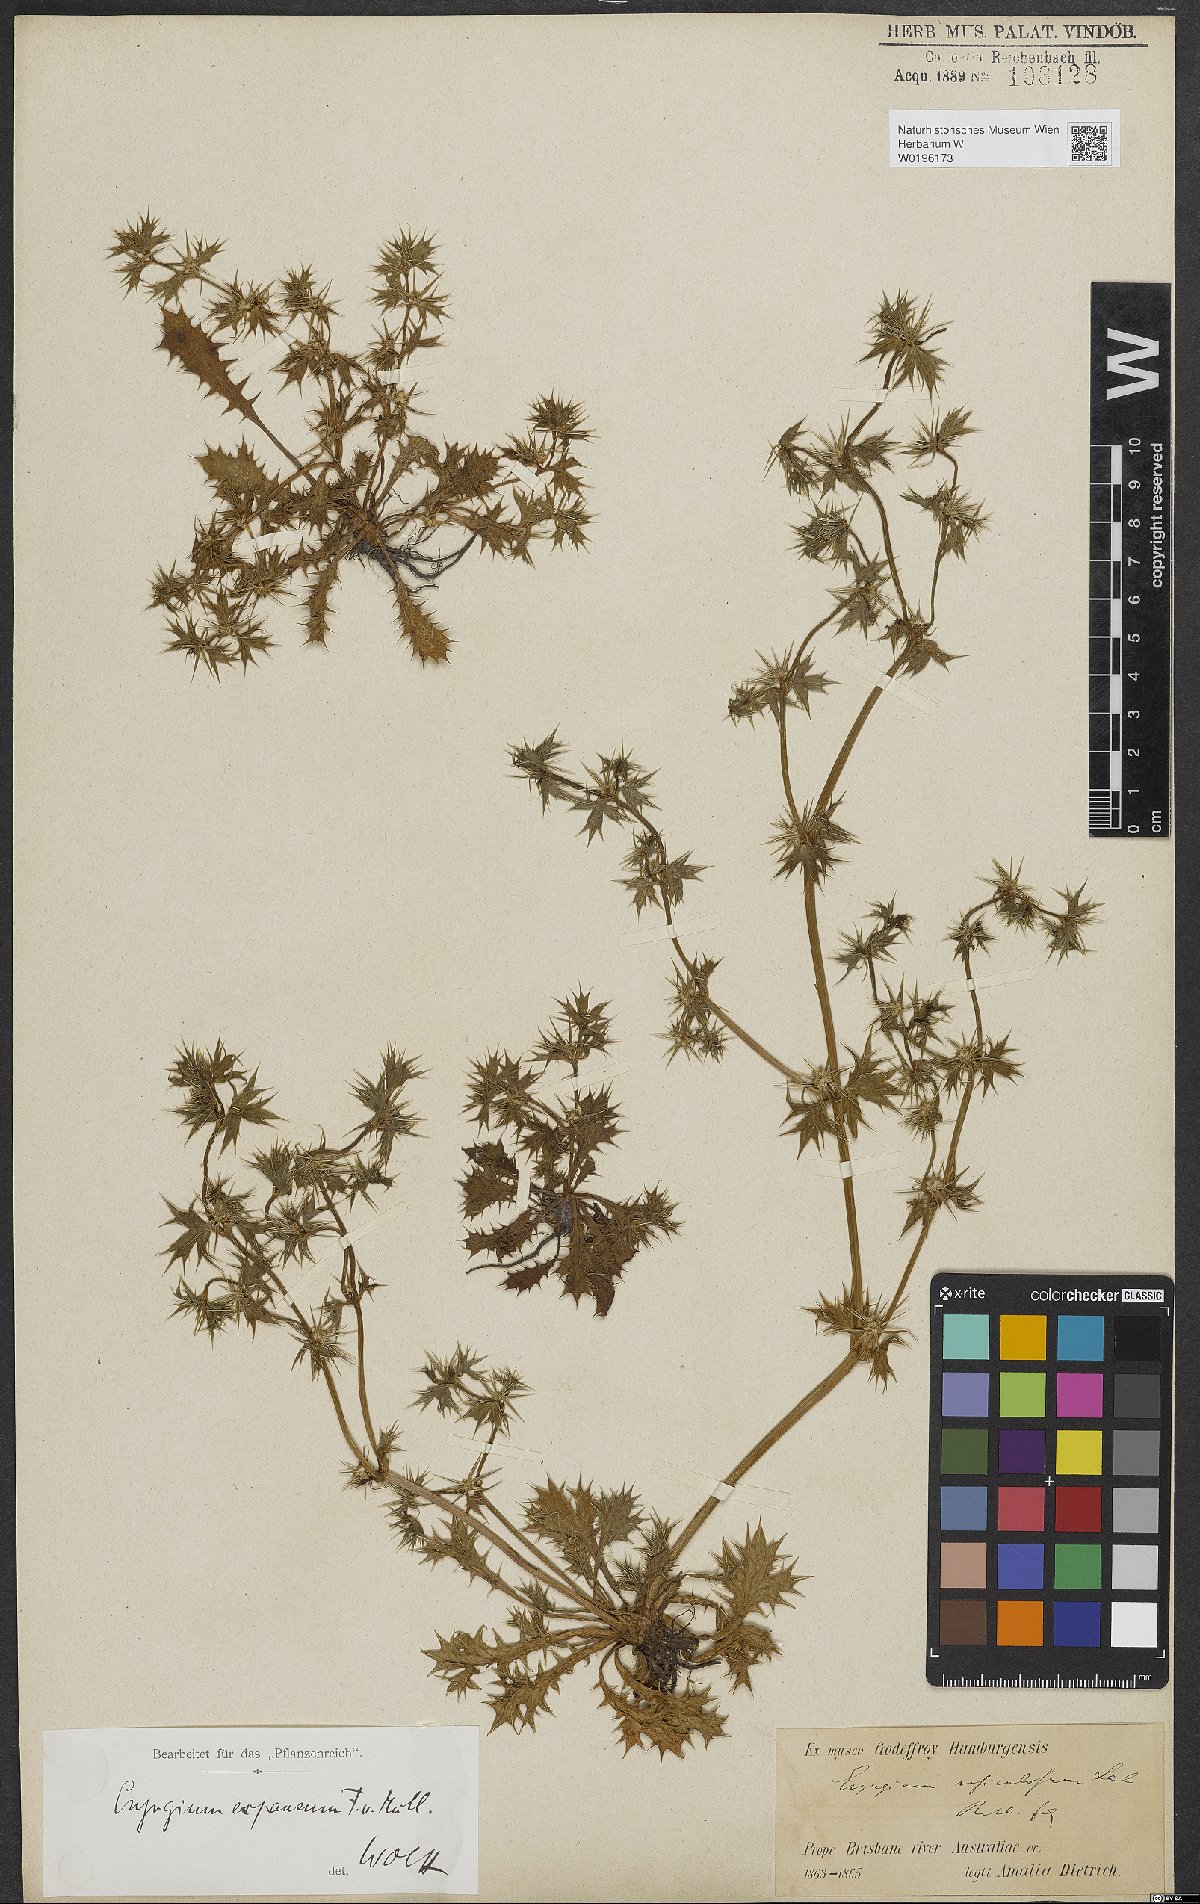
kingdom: Plantae
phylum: Tracheophyta
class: Magnoliopsida
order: Apiales
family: Apiaceae
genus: Eryngium
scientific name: Eryngium expansum
